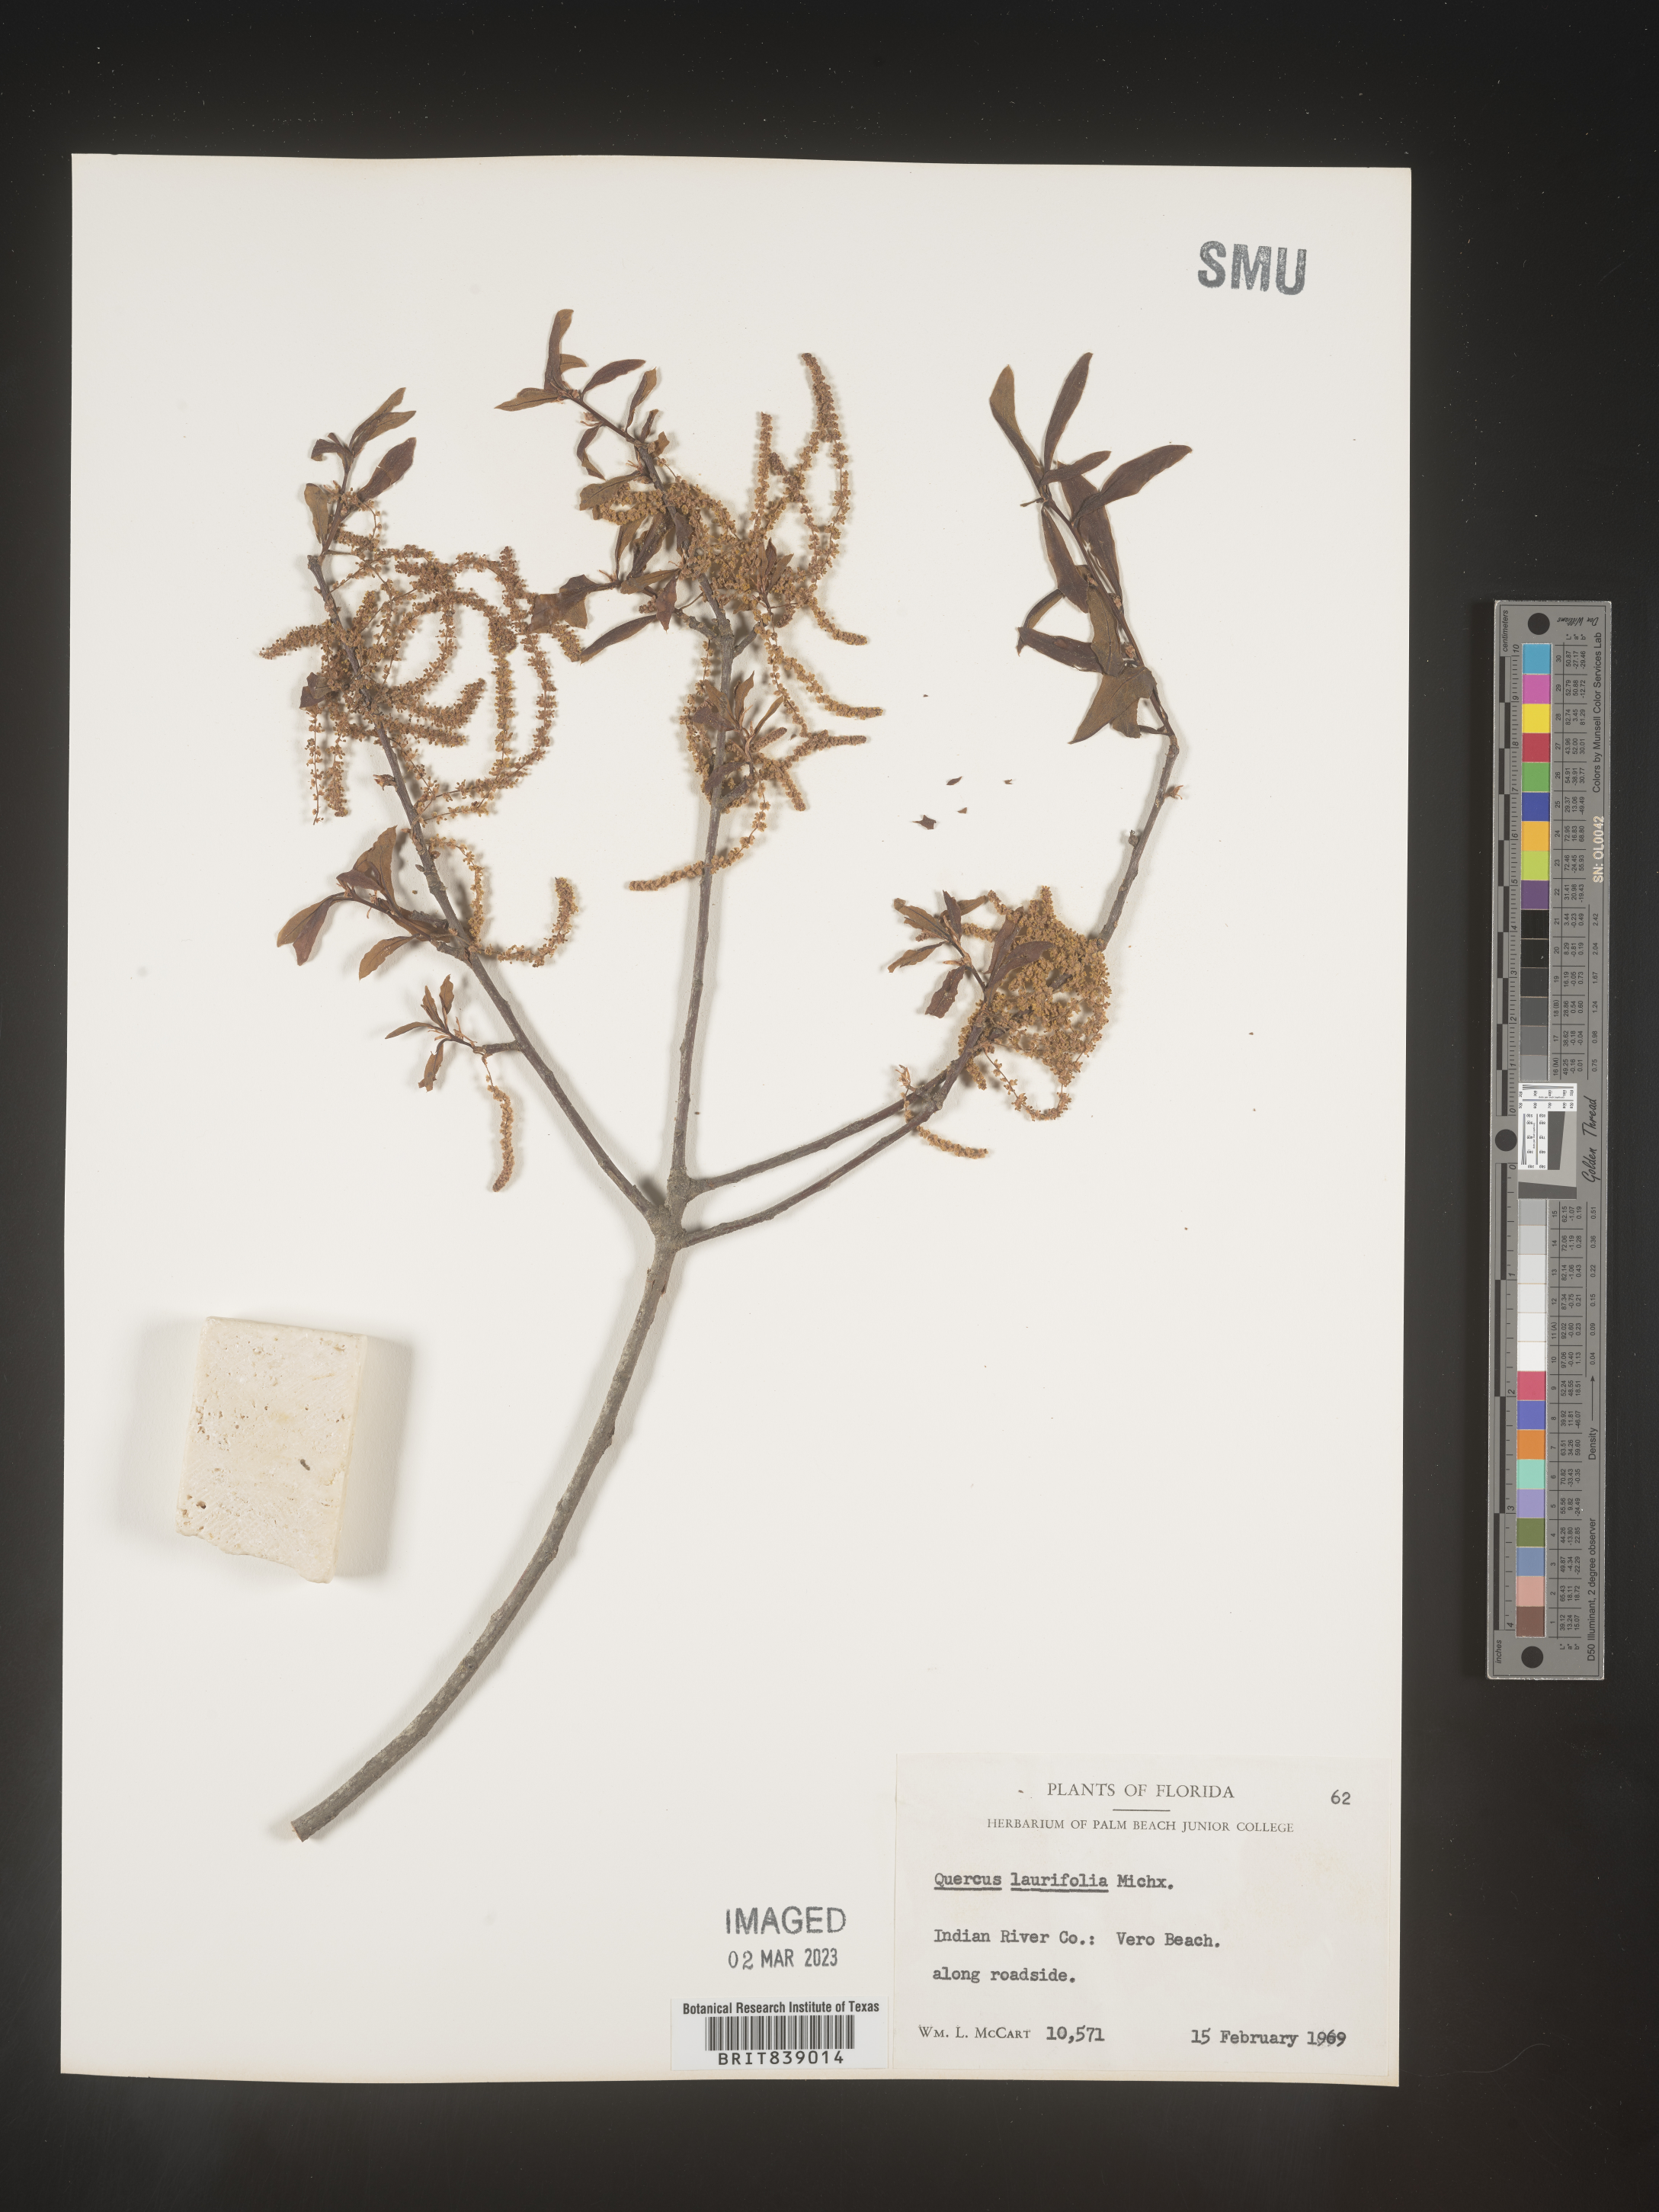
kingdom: Plantae
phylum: Tracheophyta
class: Magnoliopsida
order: Fagales
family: Fagaceae
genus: Quercus
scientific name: Quercus laurifolia
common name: Swamp laurel oak
